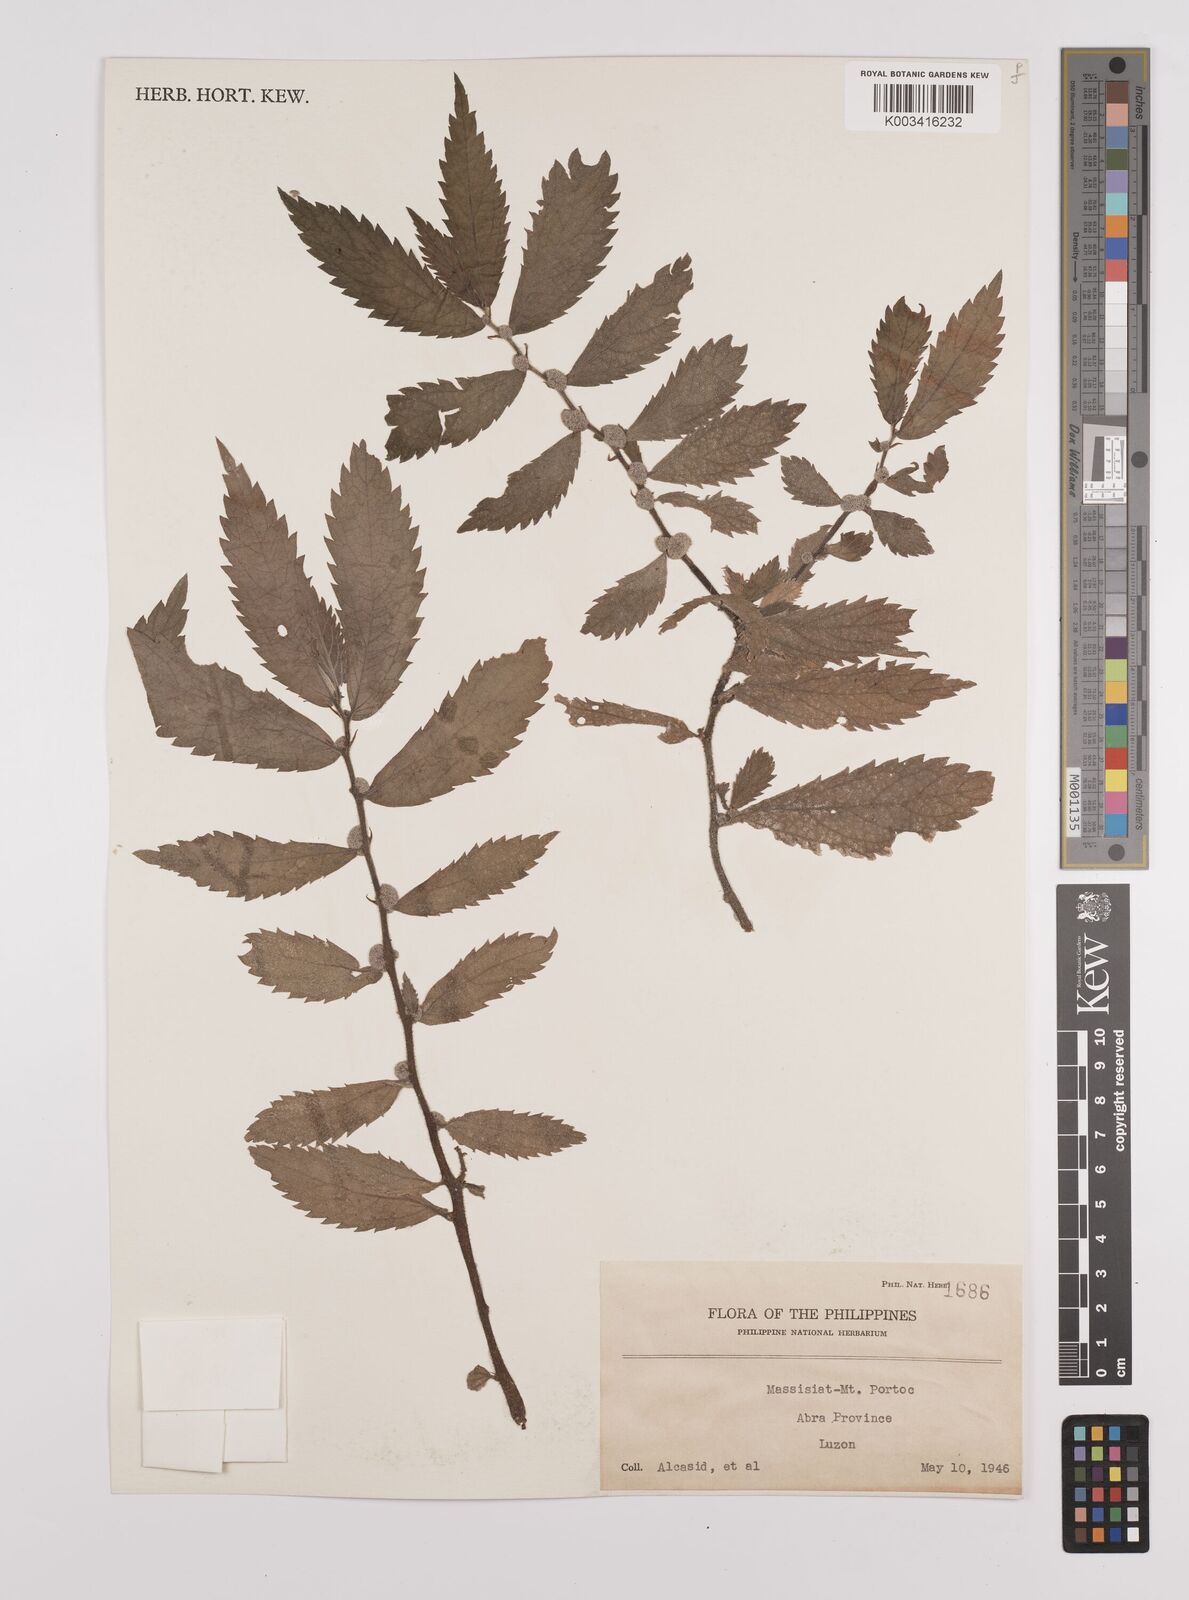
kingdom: Plantae
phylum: Tracheophyta
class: Magnoliopsida
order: Rosales
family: Urticaceae
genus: Elatostema
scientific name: Elatostema
